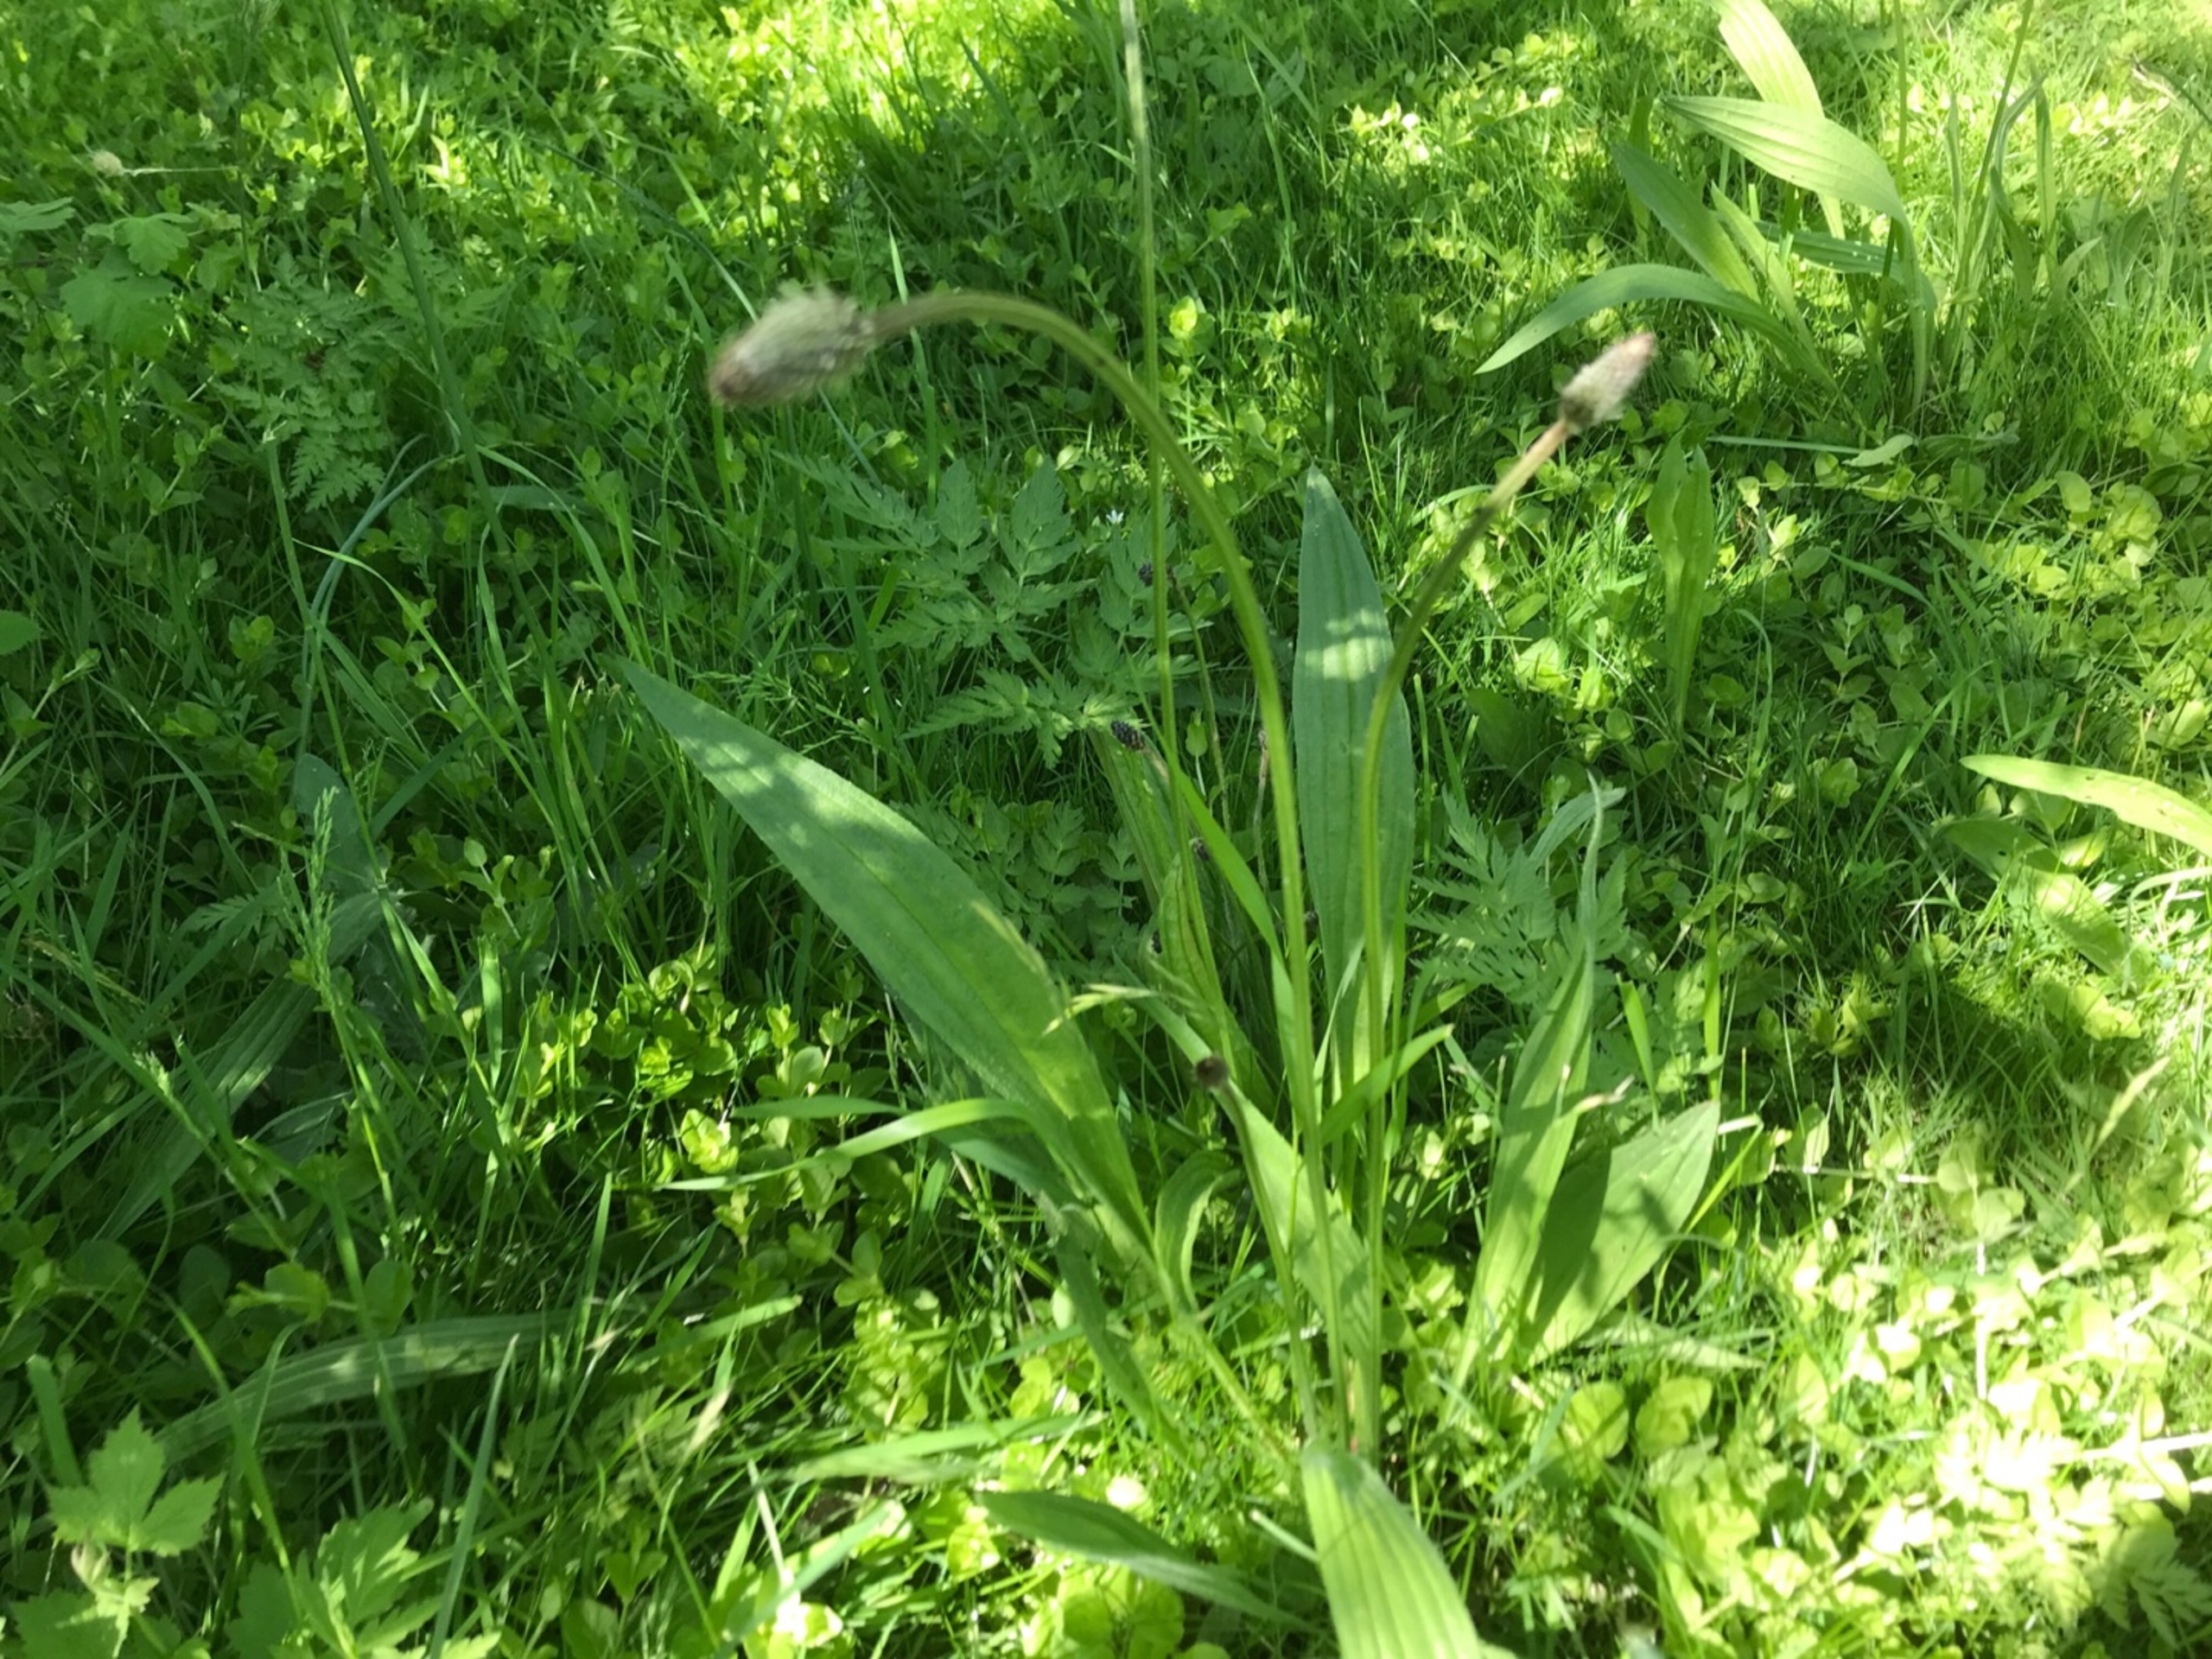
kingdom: Plantae
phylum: Tracheophyta
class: Magnoliopsida
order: Lamiales
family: Plantaginaceae
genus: Plantago
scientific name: Plantago lanceolata
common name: Lancet-vejbred
